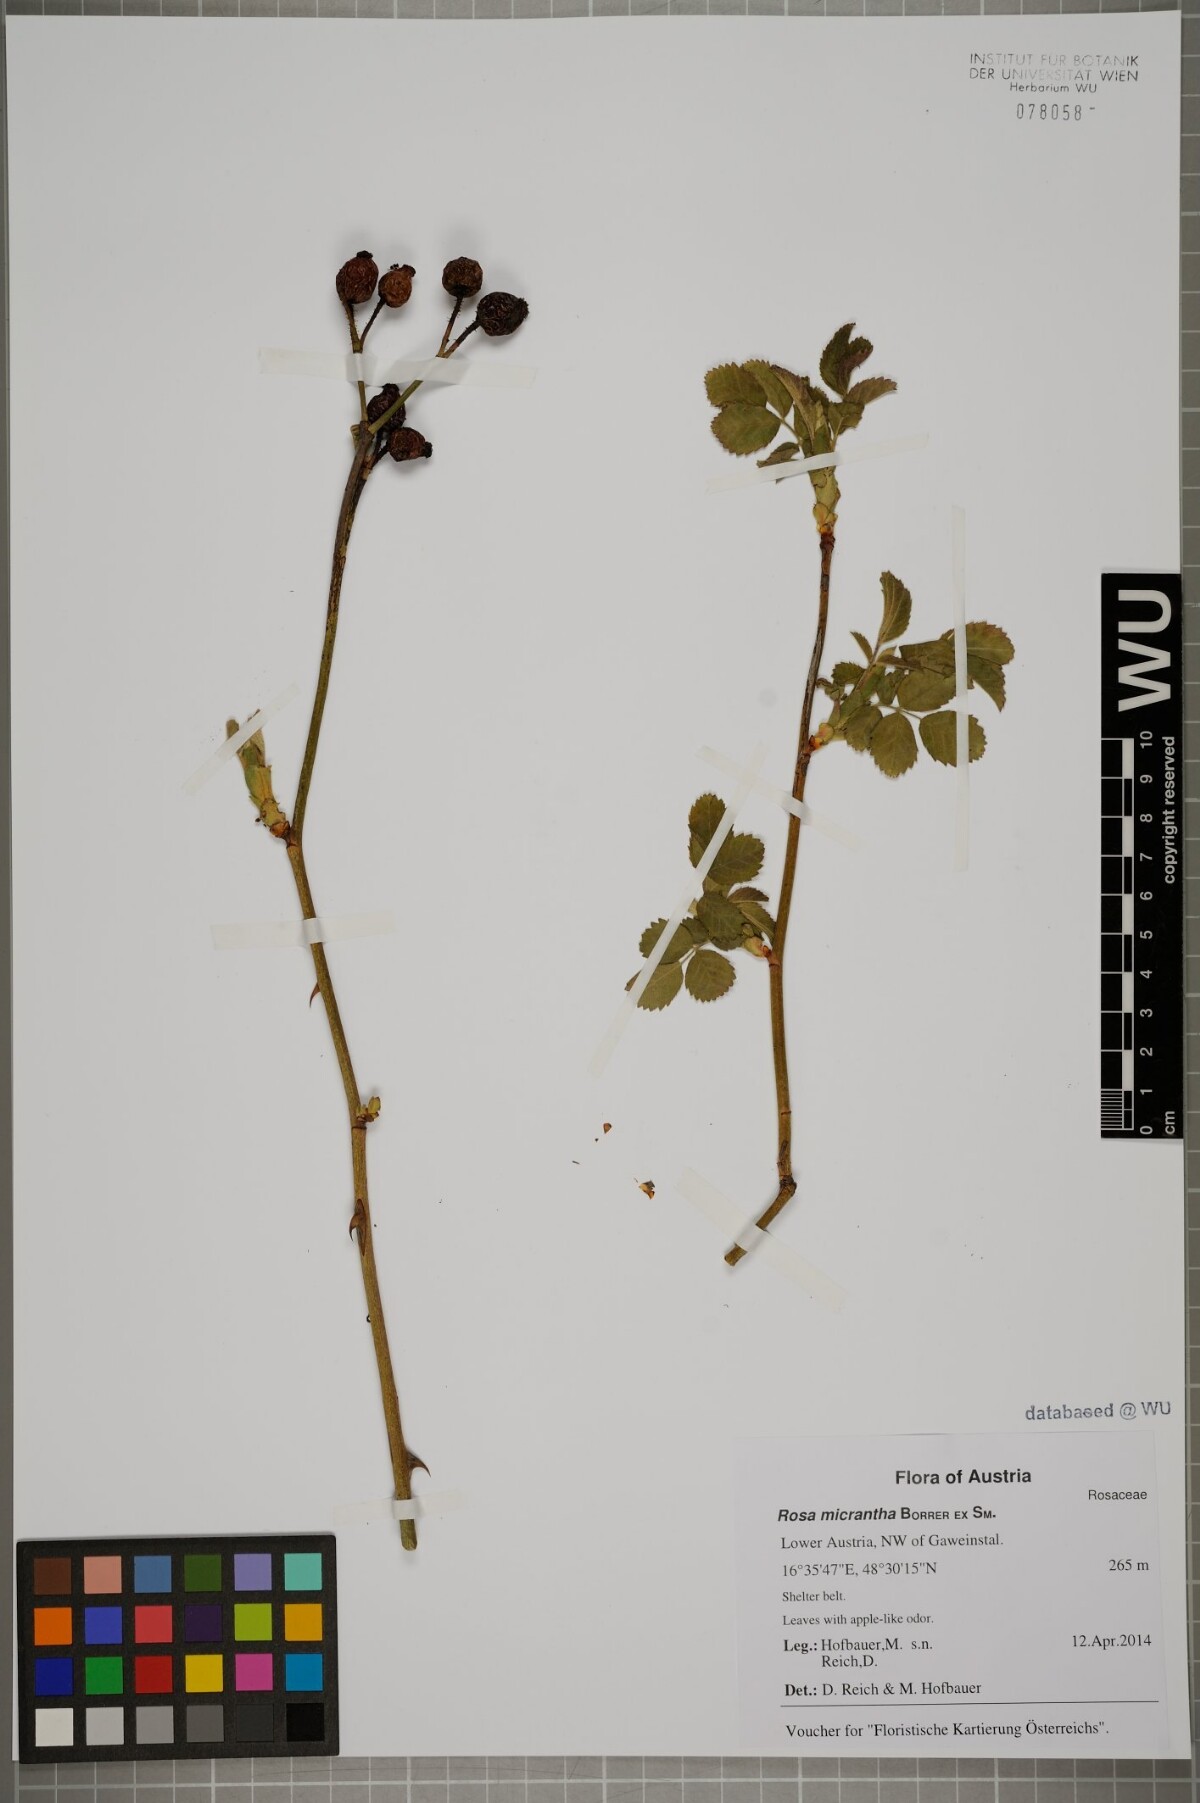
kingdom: Plantae
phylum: Tracheophyta
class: Magnoliopsida
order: Rosales
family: Rosaceae
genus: Rosa
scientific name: Rosa micrantha
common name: Small-flowered sweet-briar
